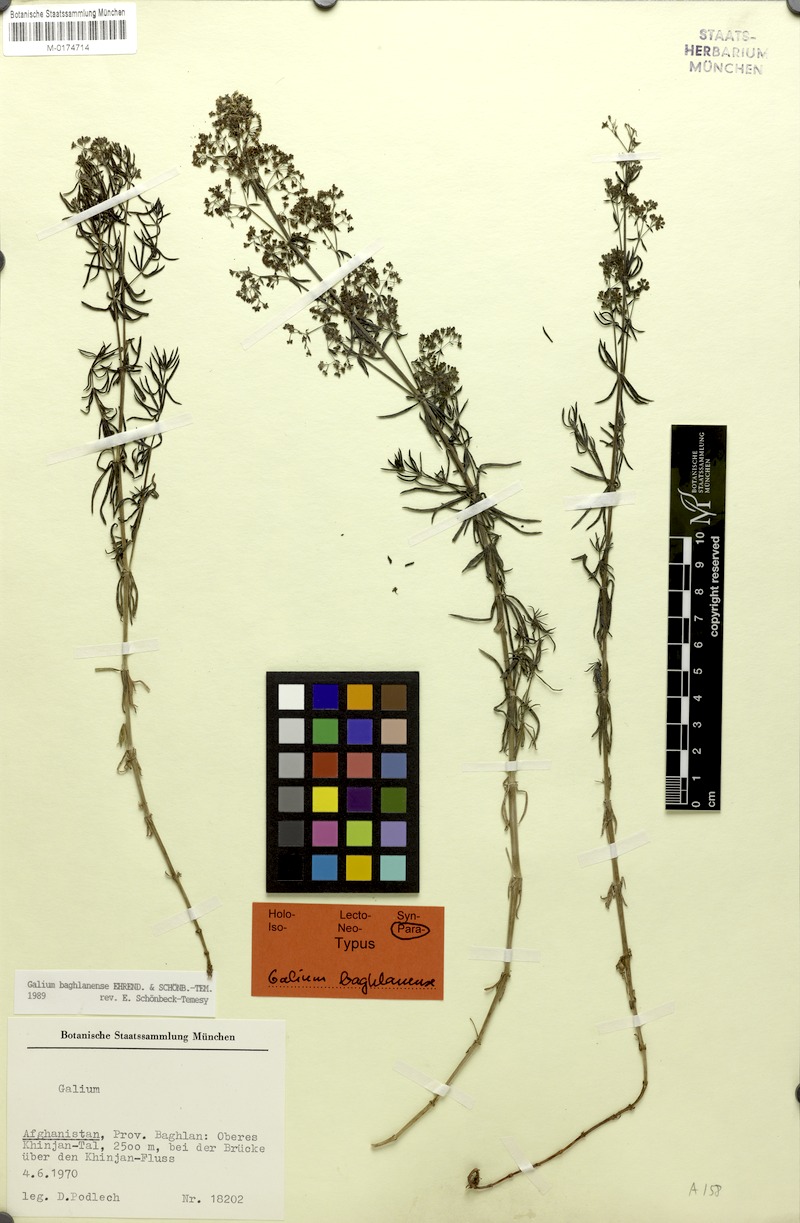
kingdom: Plantae
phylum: Tracheophyta
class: Magnoliopsida
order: Gentianales
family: Rubiaceae
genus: Galium
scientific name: Galium baghlanense
